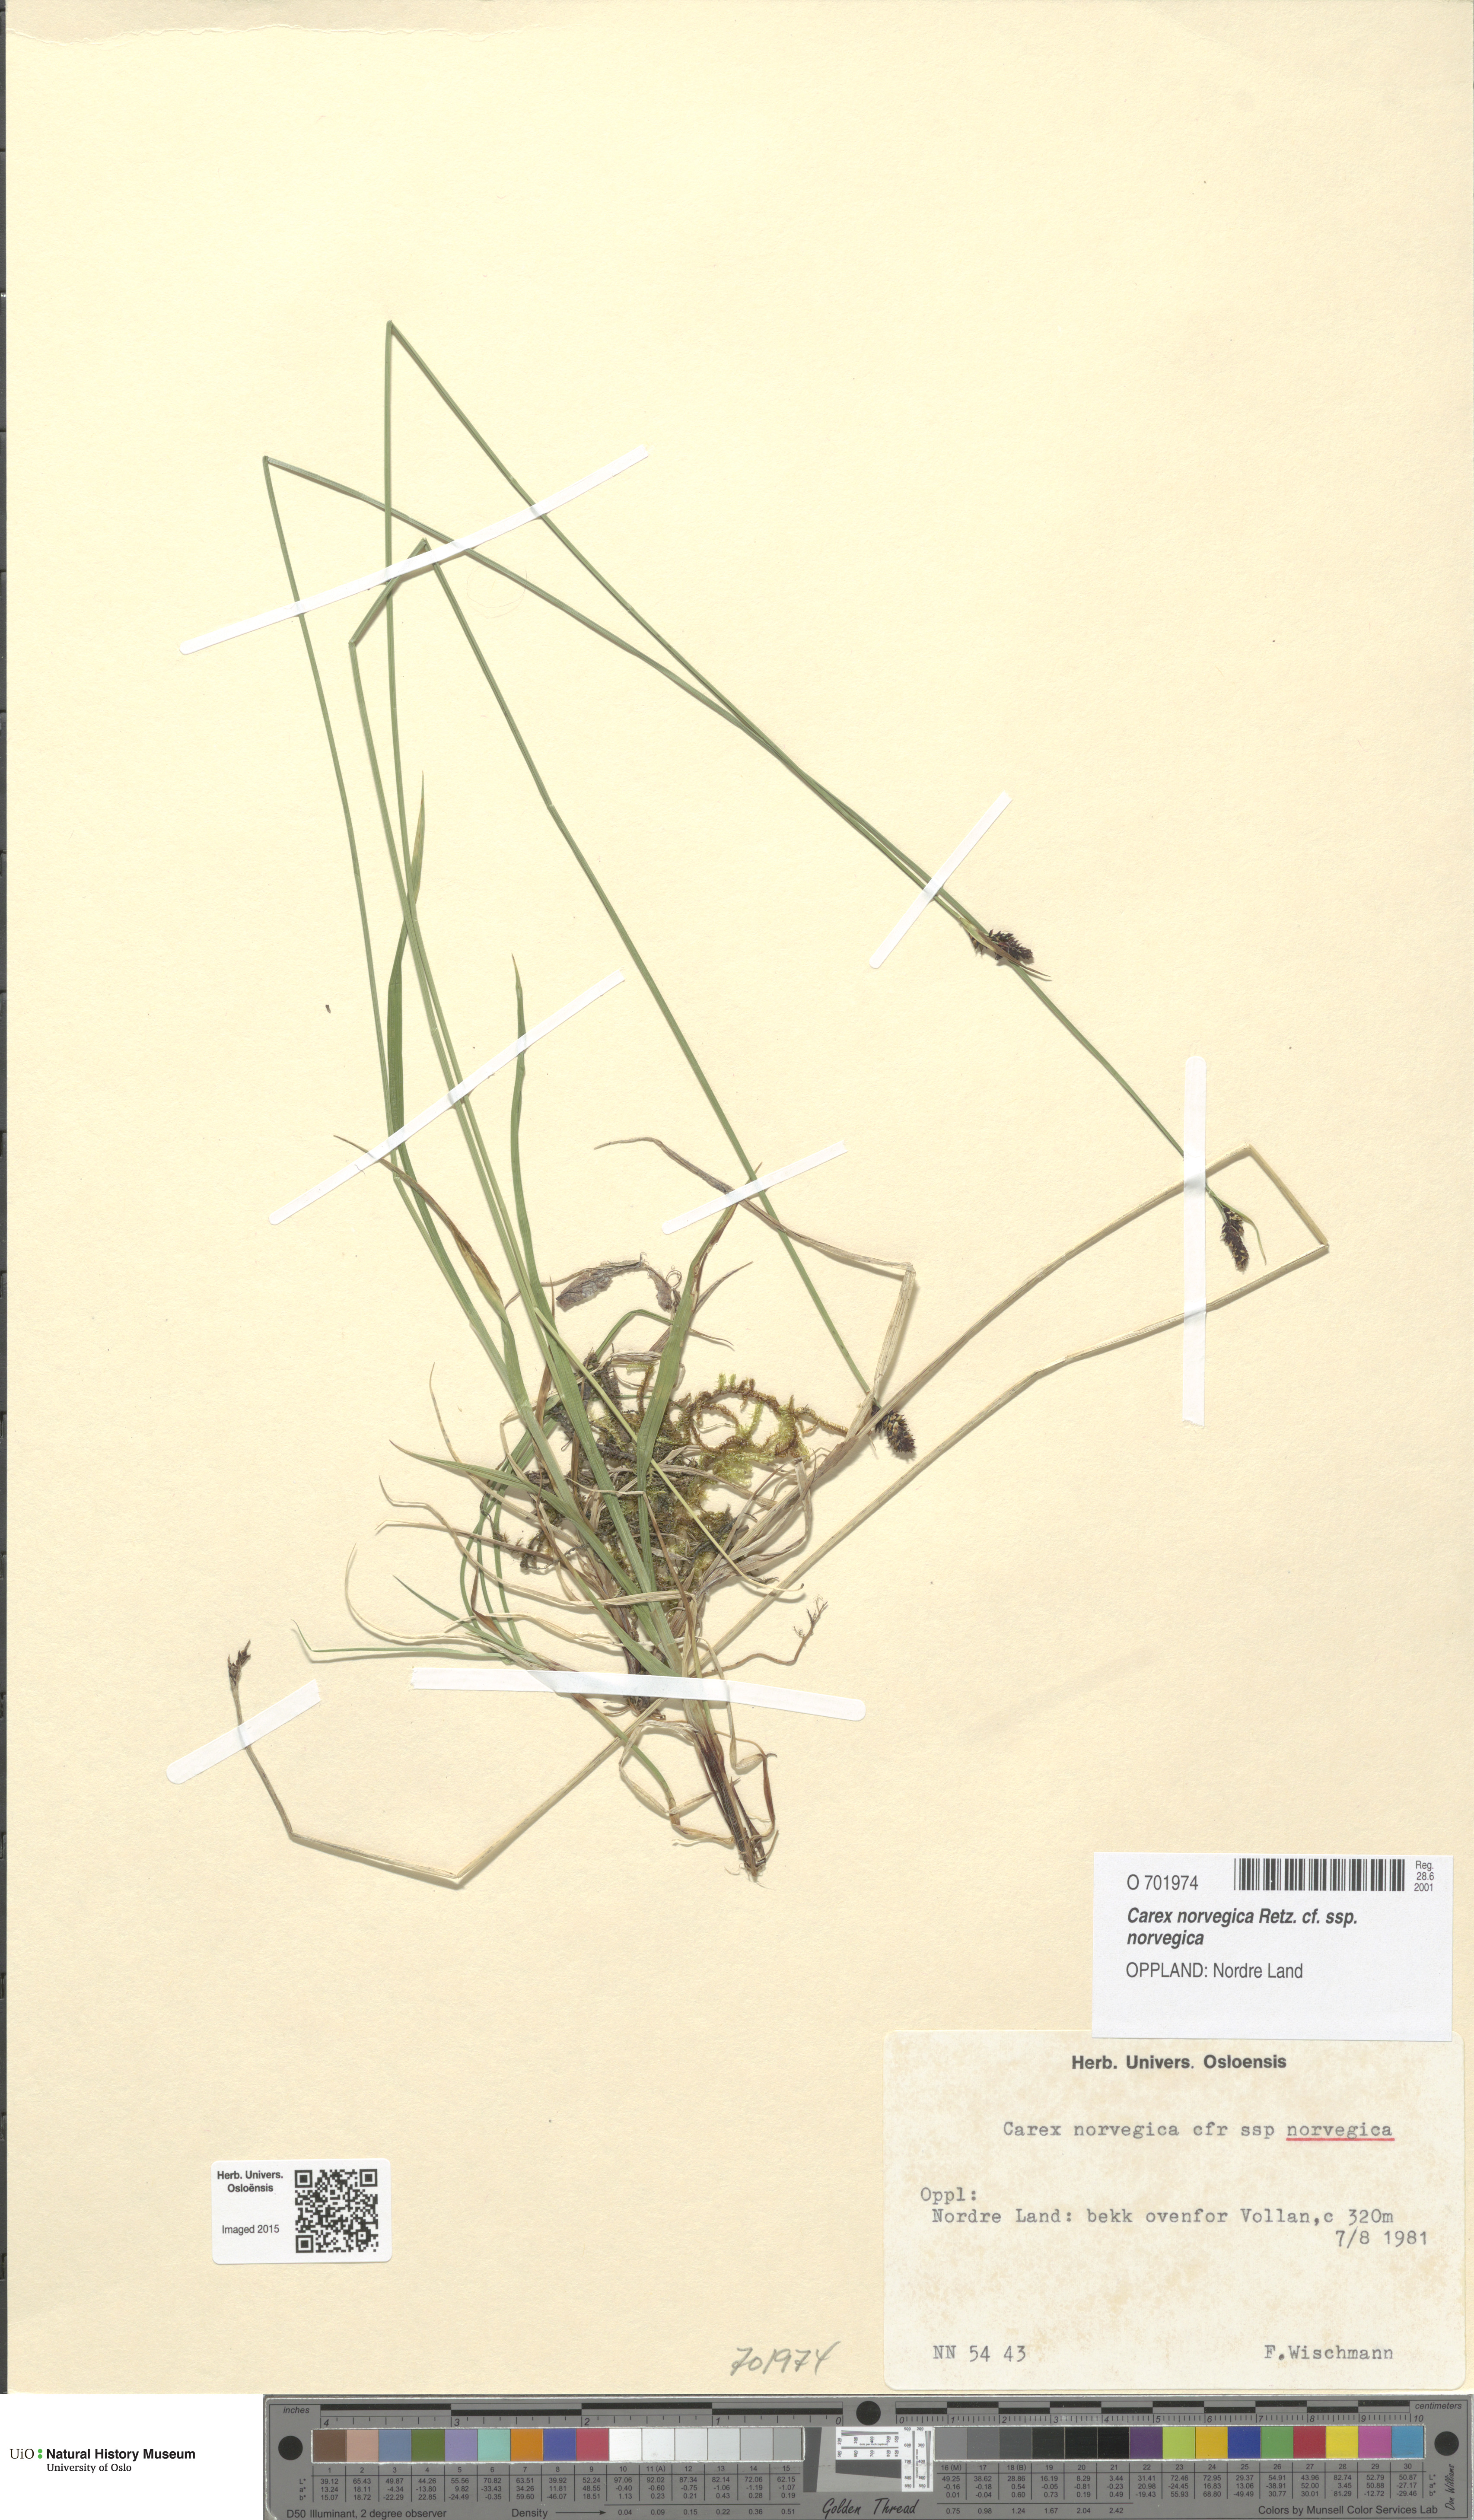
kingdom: Plantae
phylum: Tracheophyta
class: Liliopsida
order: Poales
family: Cyperaceae
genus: Carex
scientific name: Carex norvegica
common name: Close-headed alpine-sedge
